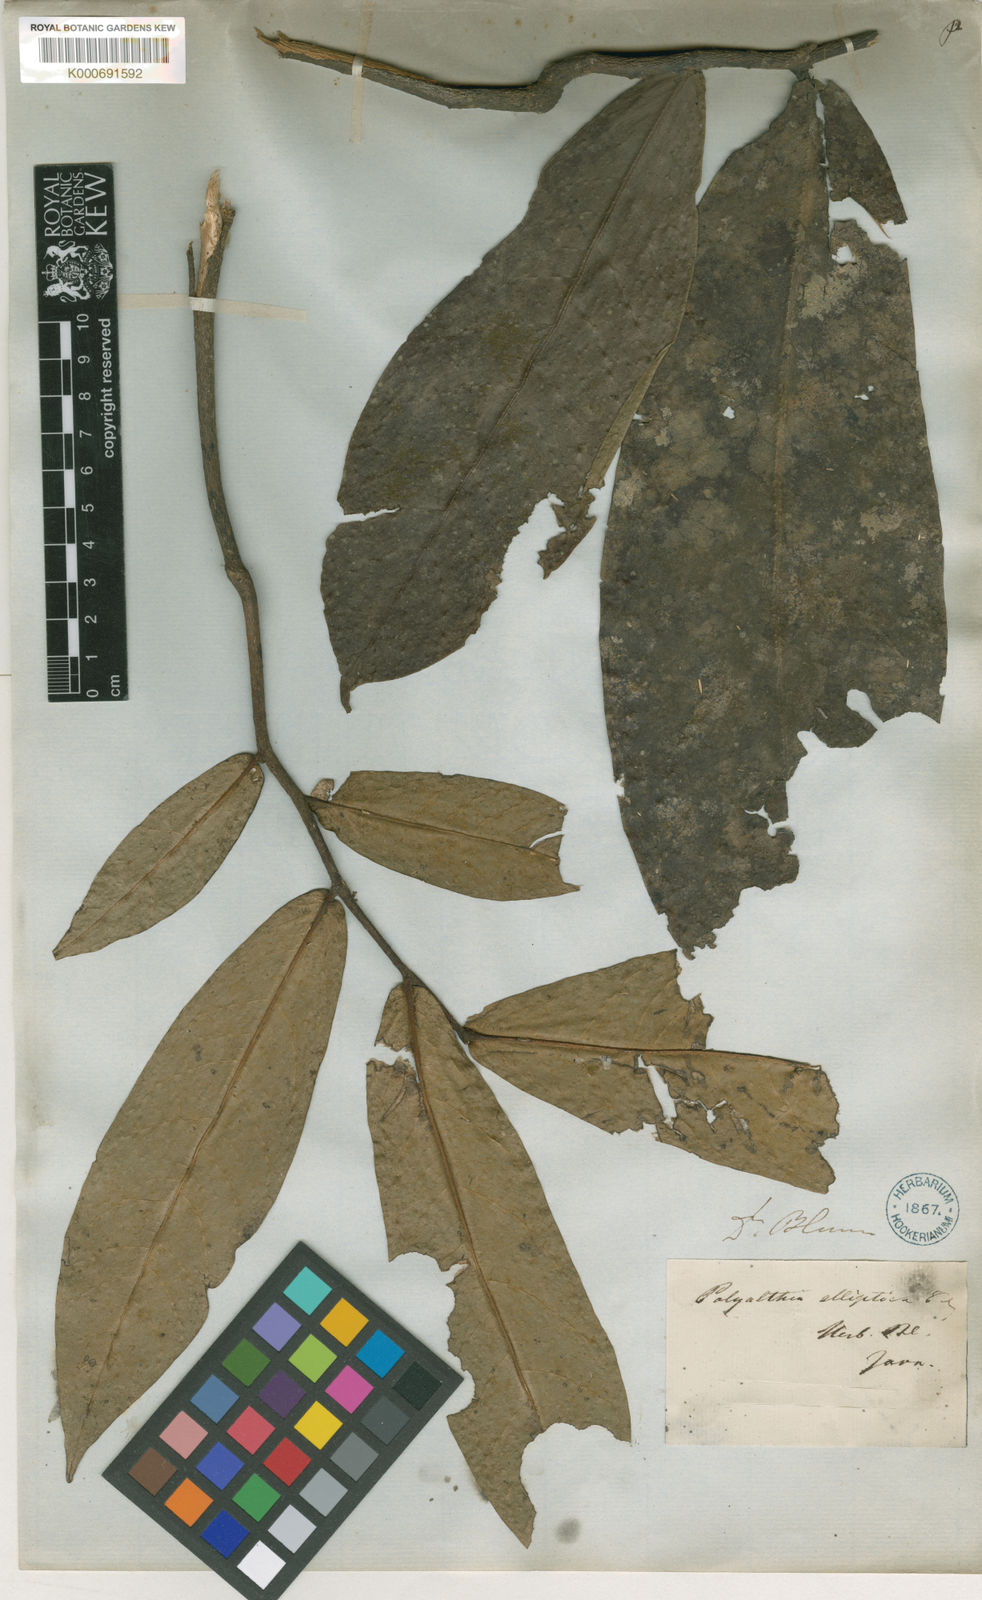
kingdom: Plantae
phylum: Tracheophyta
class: Magnoliopsida
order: Magnoliales
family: Annonaceae
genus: Polyalthia
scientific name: Polyalthia elliptica
